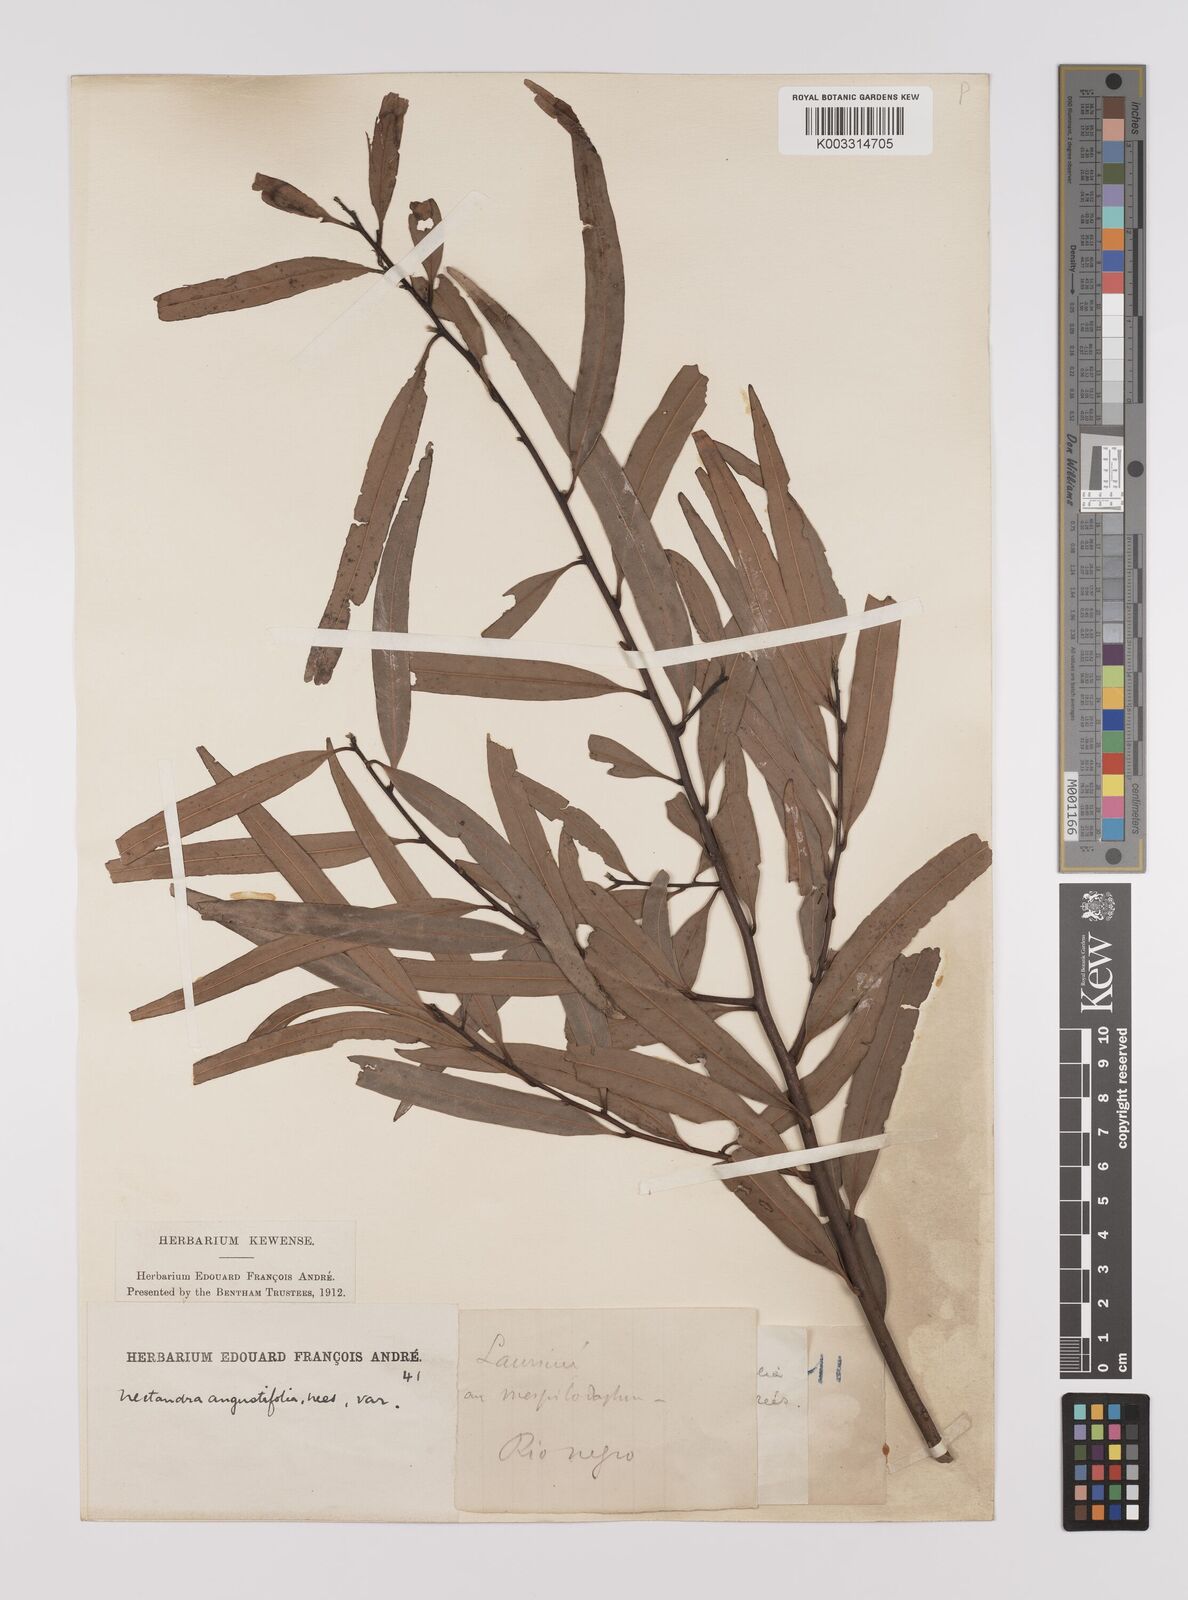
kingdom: Plantae
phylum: Tracheophyta
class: Magnoliopsida
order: Laurales
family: Lauraceae
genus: Nectandra
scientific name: Nectandra angustifolia
